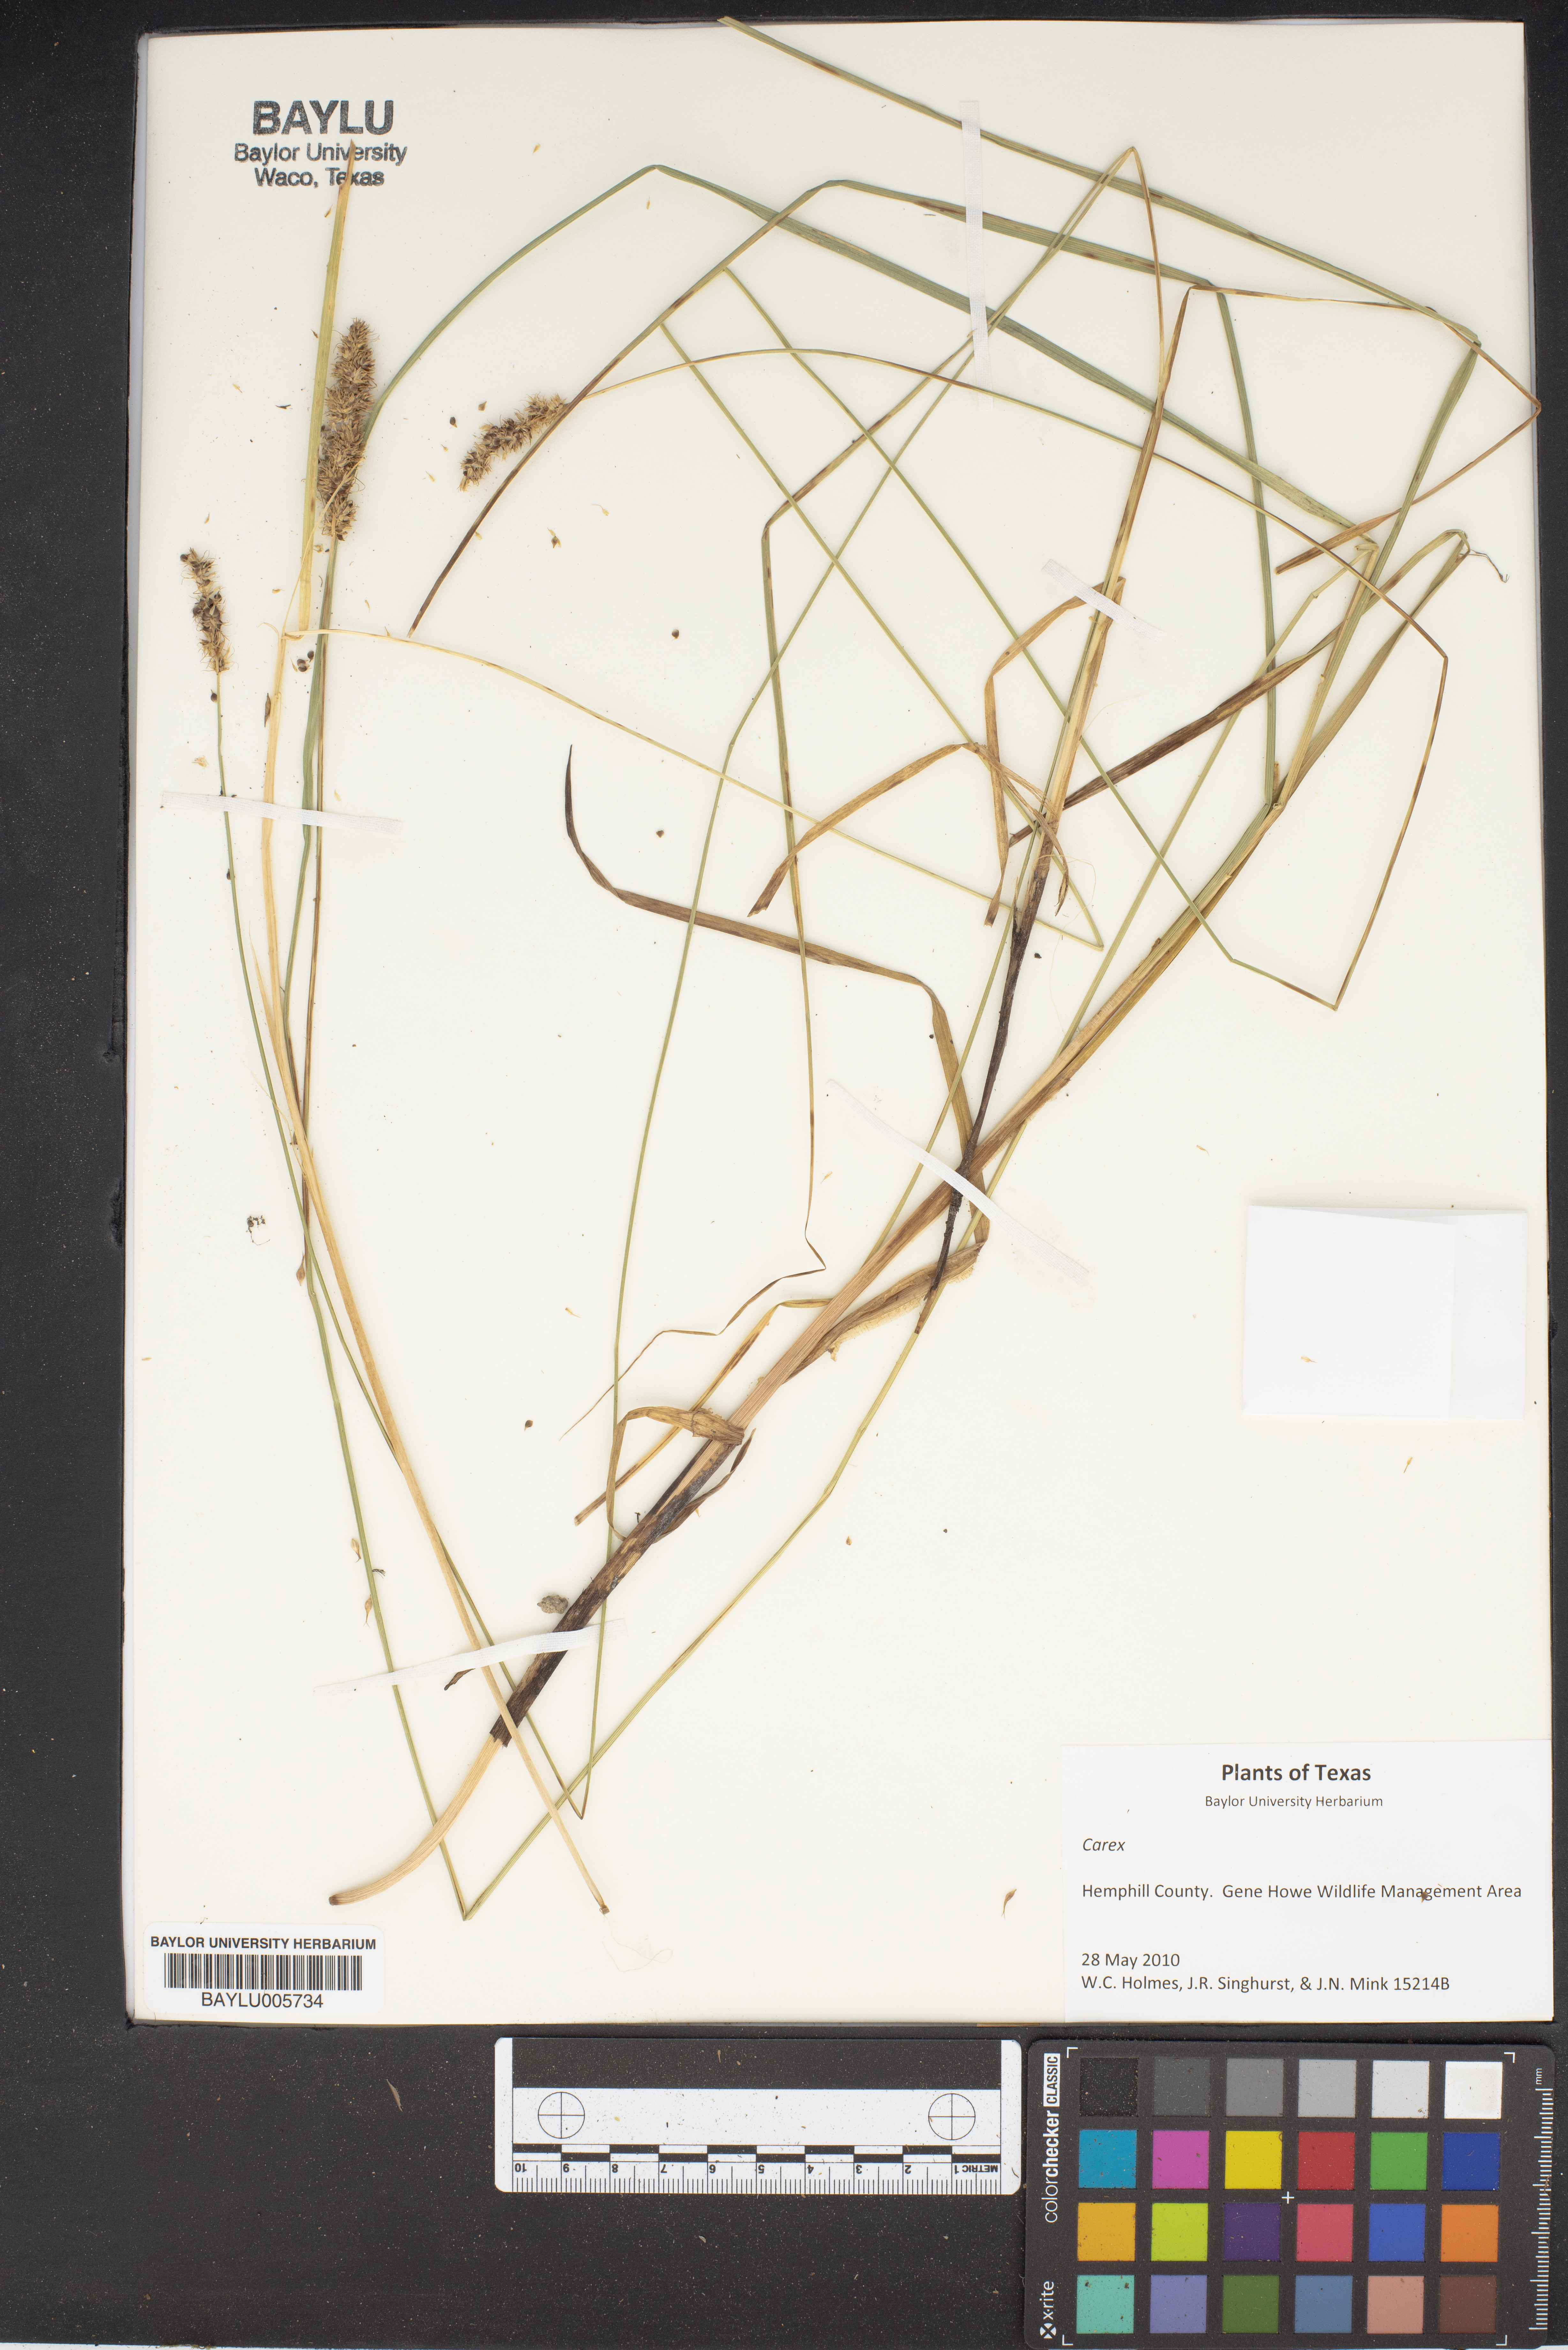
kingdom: Plantae
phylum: Tracheophyta
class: Liliopsida
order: Poales
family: Cyperaceae
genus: Carex
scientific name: Carex
